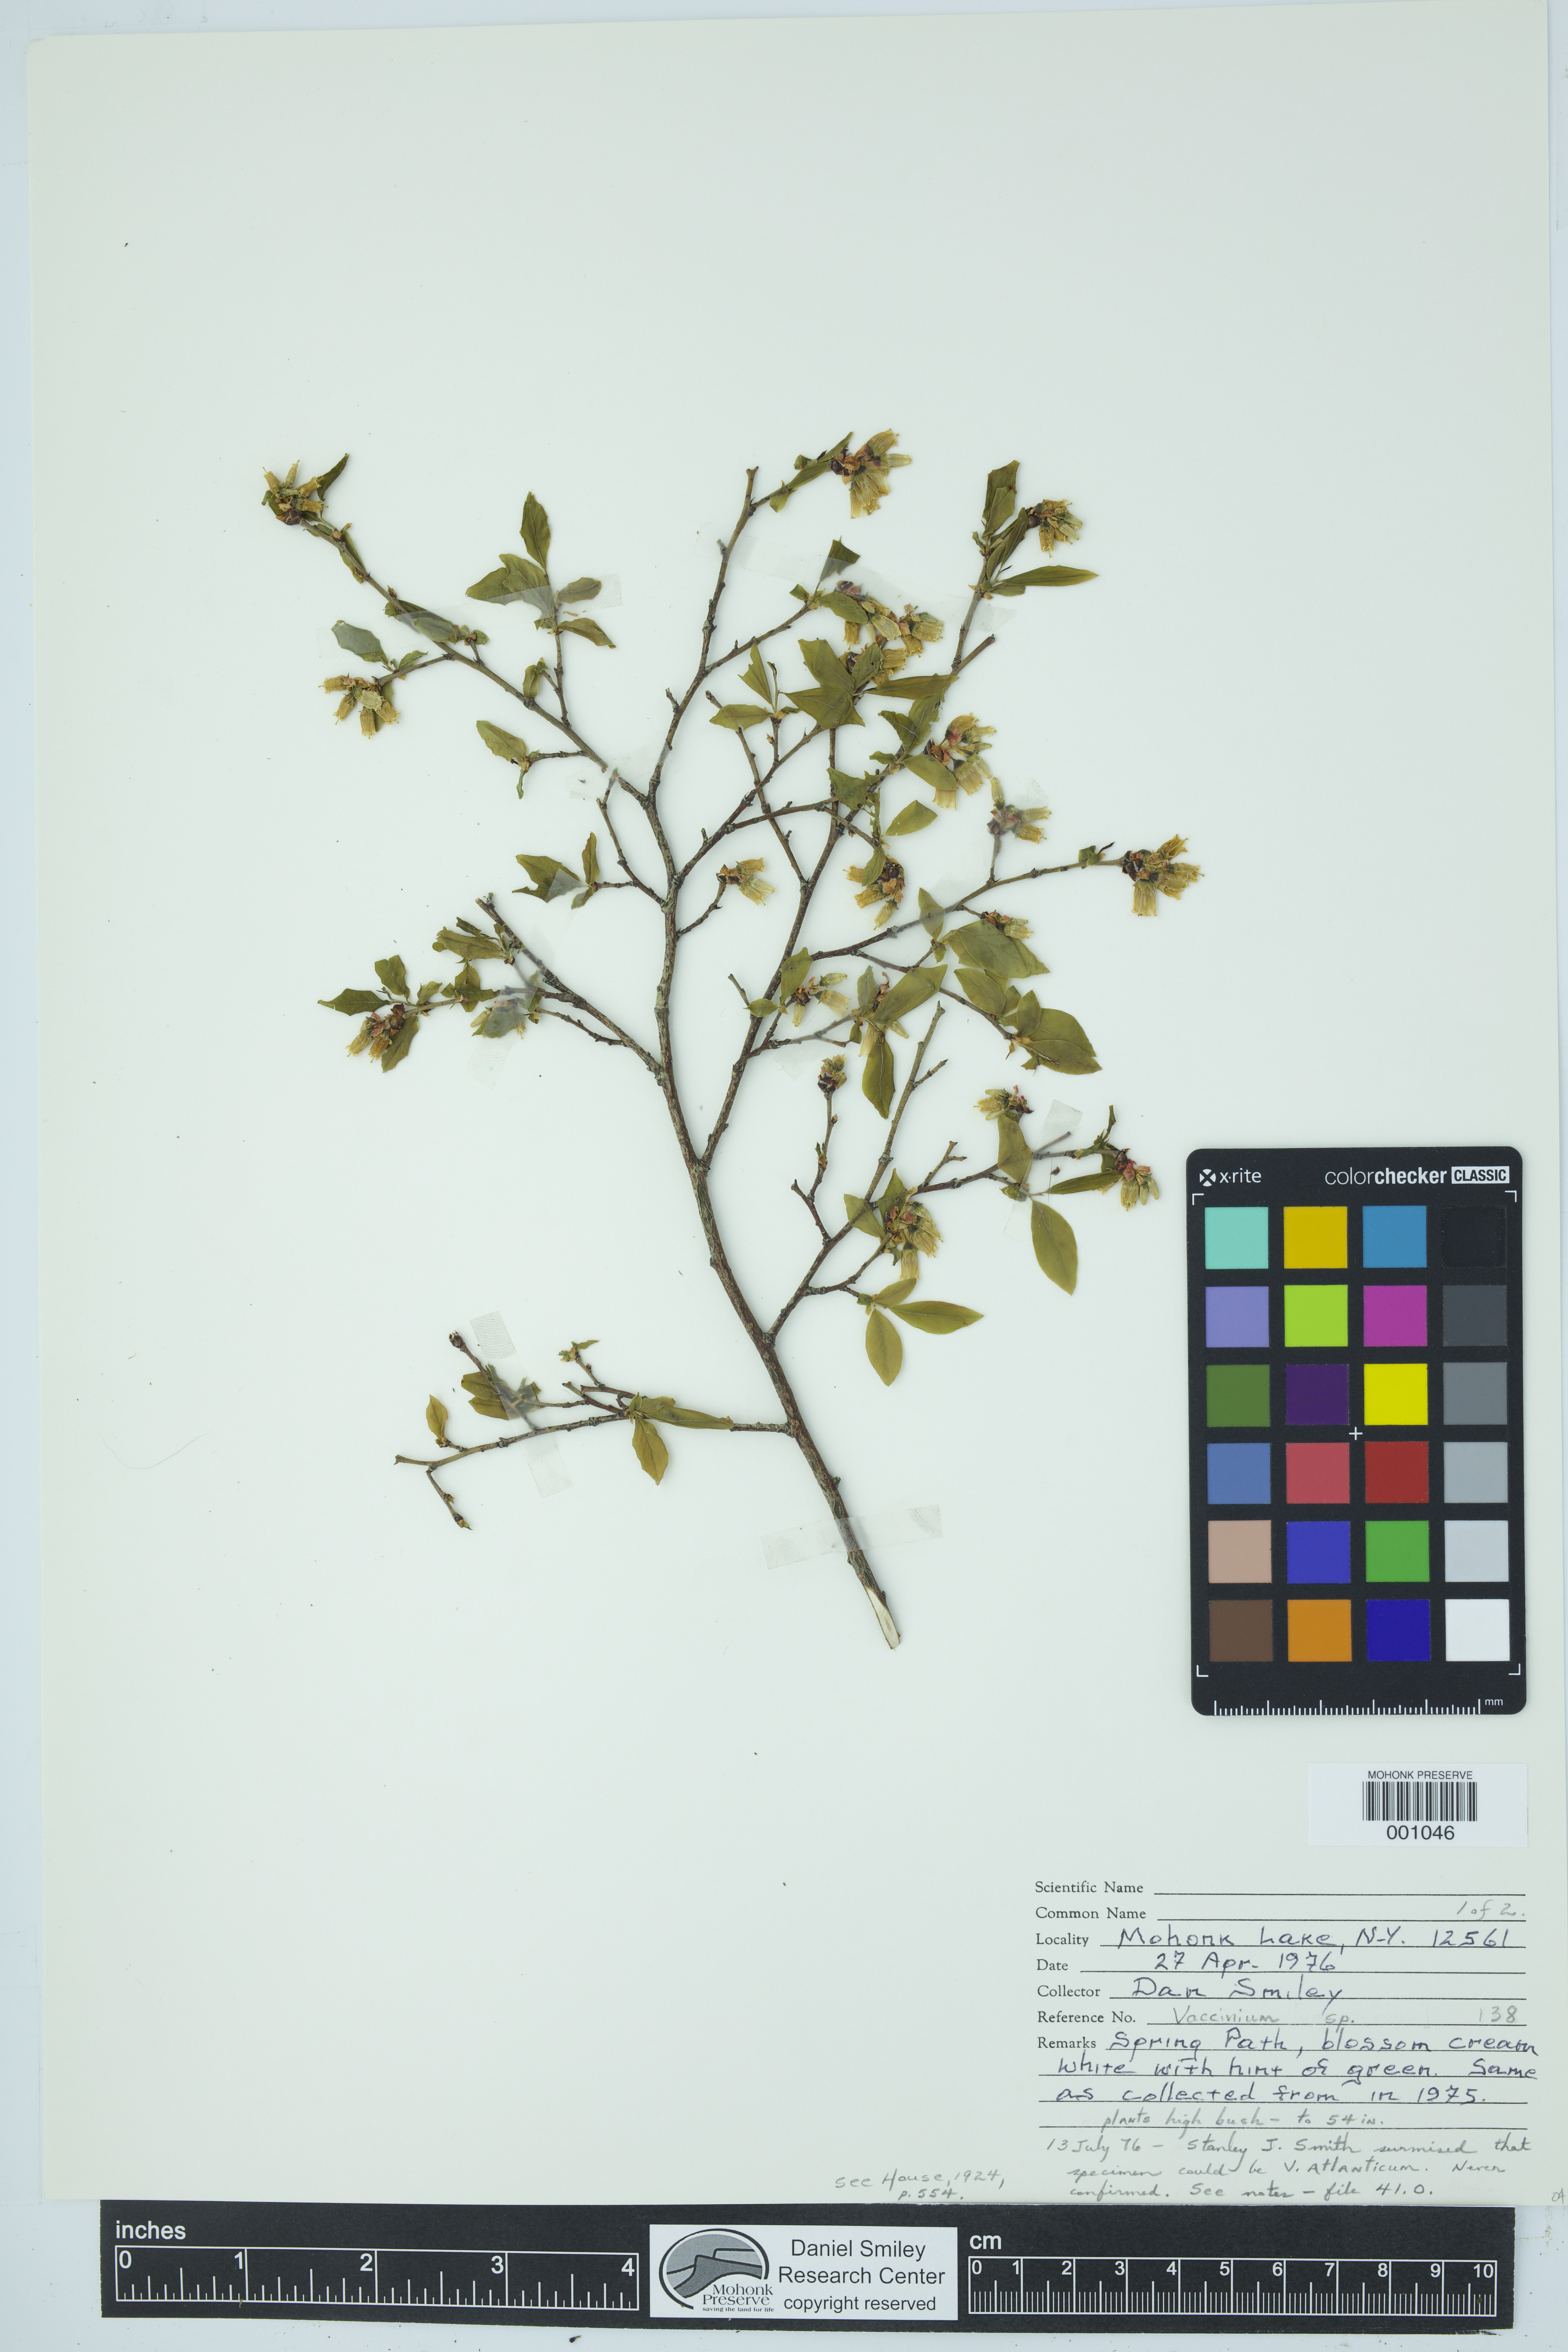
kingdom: Plantae
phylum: Tracheophyta
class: Magnoliopsida
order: Ericales
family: Ericaceae
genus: Vaccinium
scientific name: Vaccinium
